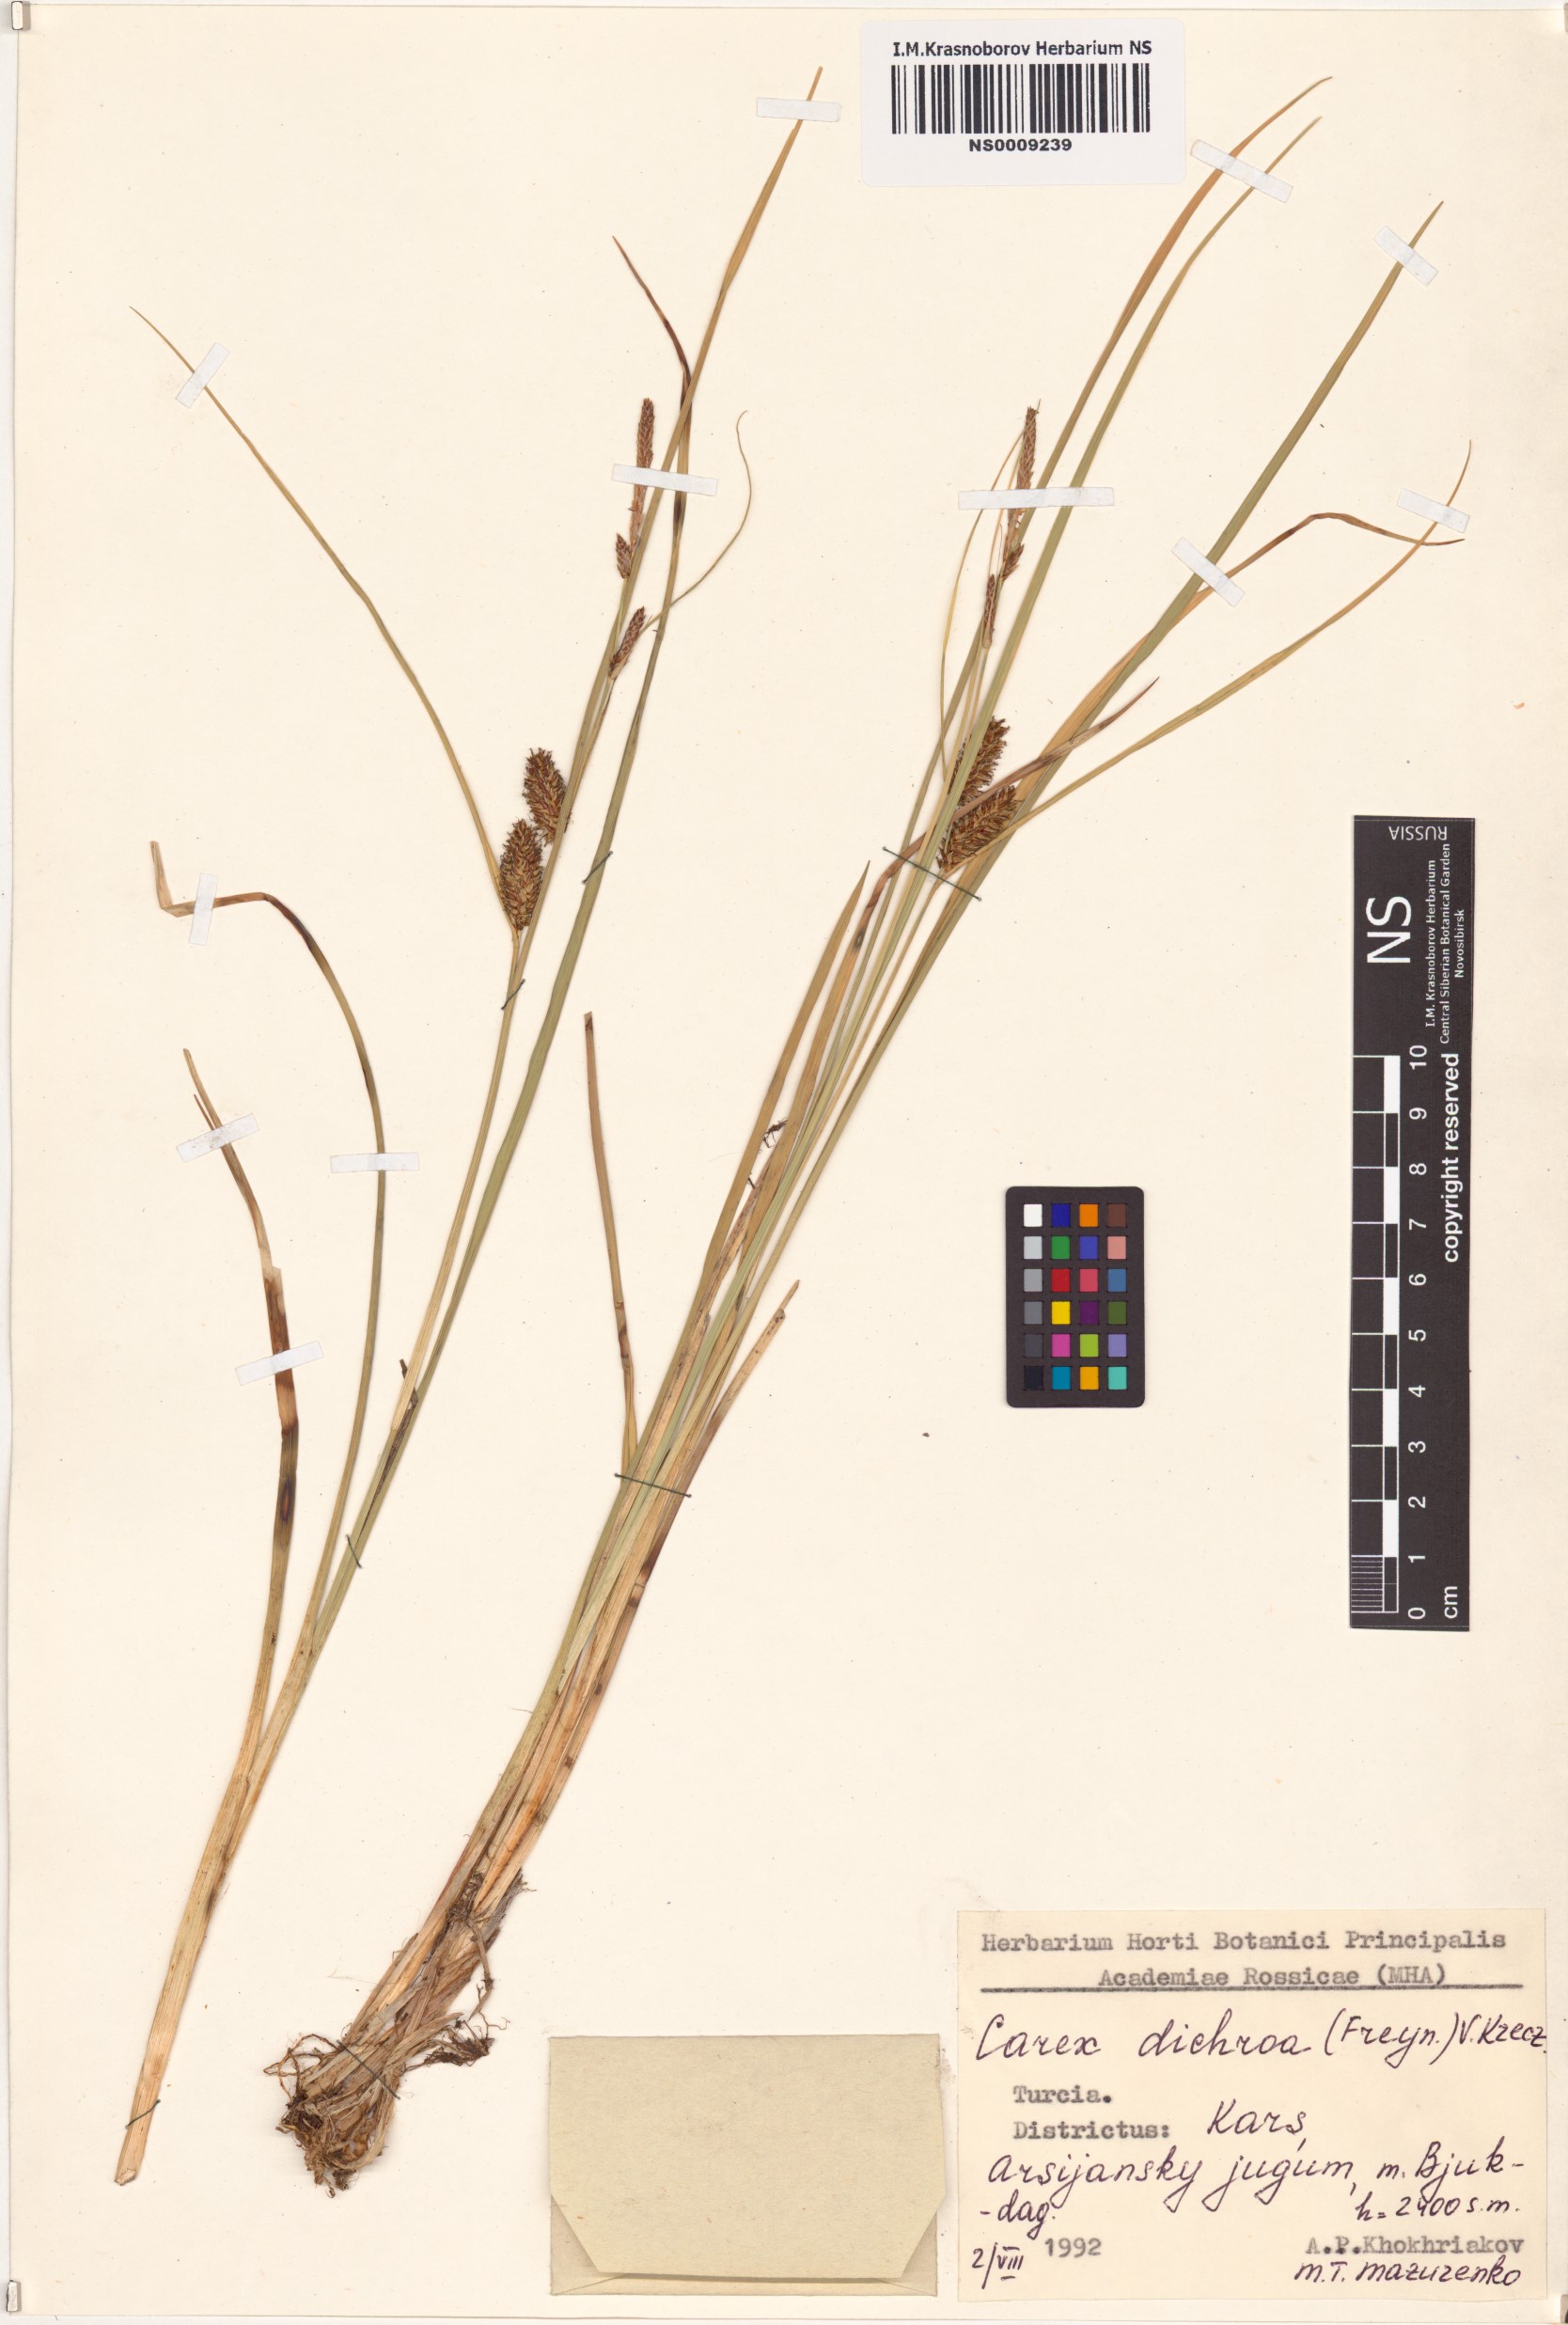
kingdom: Plantae
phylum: Tracheophyta
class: Liliopsida
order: Poales
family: Cyperaceae
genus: Carex
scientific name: Carex pamirensis
